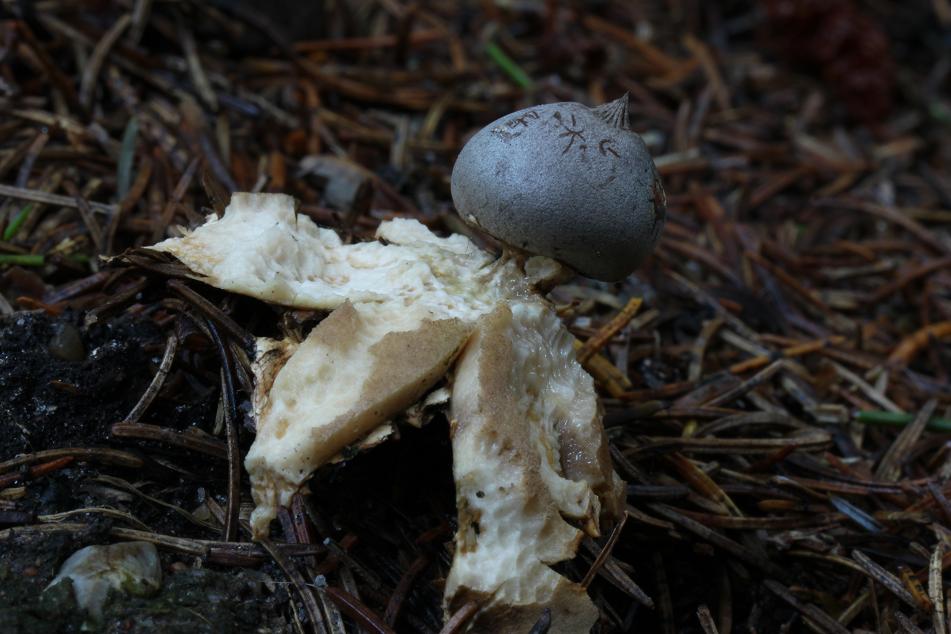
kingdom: Fungi
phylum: Basidiomycota
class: Agaricomycetes
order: Geastrales
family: Geastraceae
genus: Geastrum
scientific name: Geastrum pectinatum
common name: stilket stjernebold
